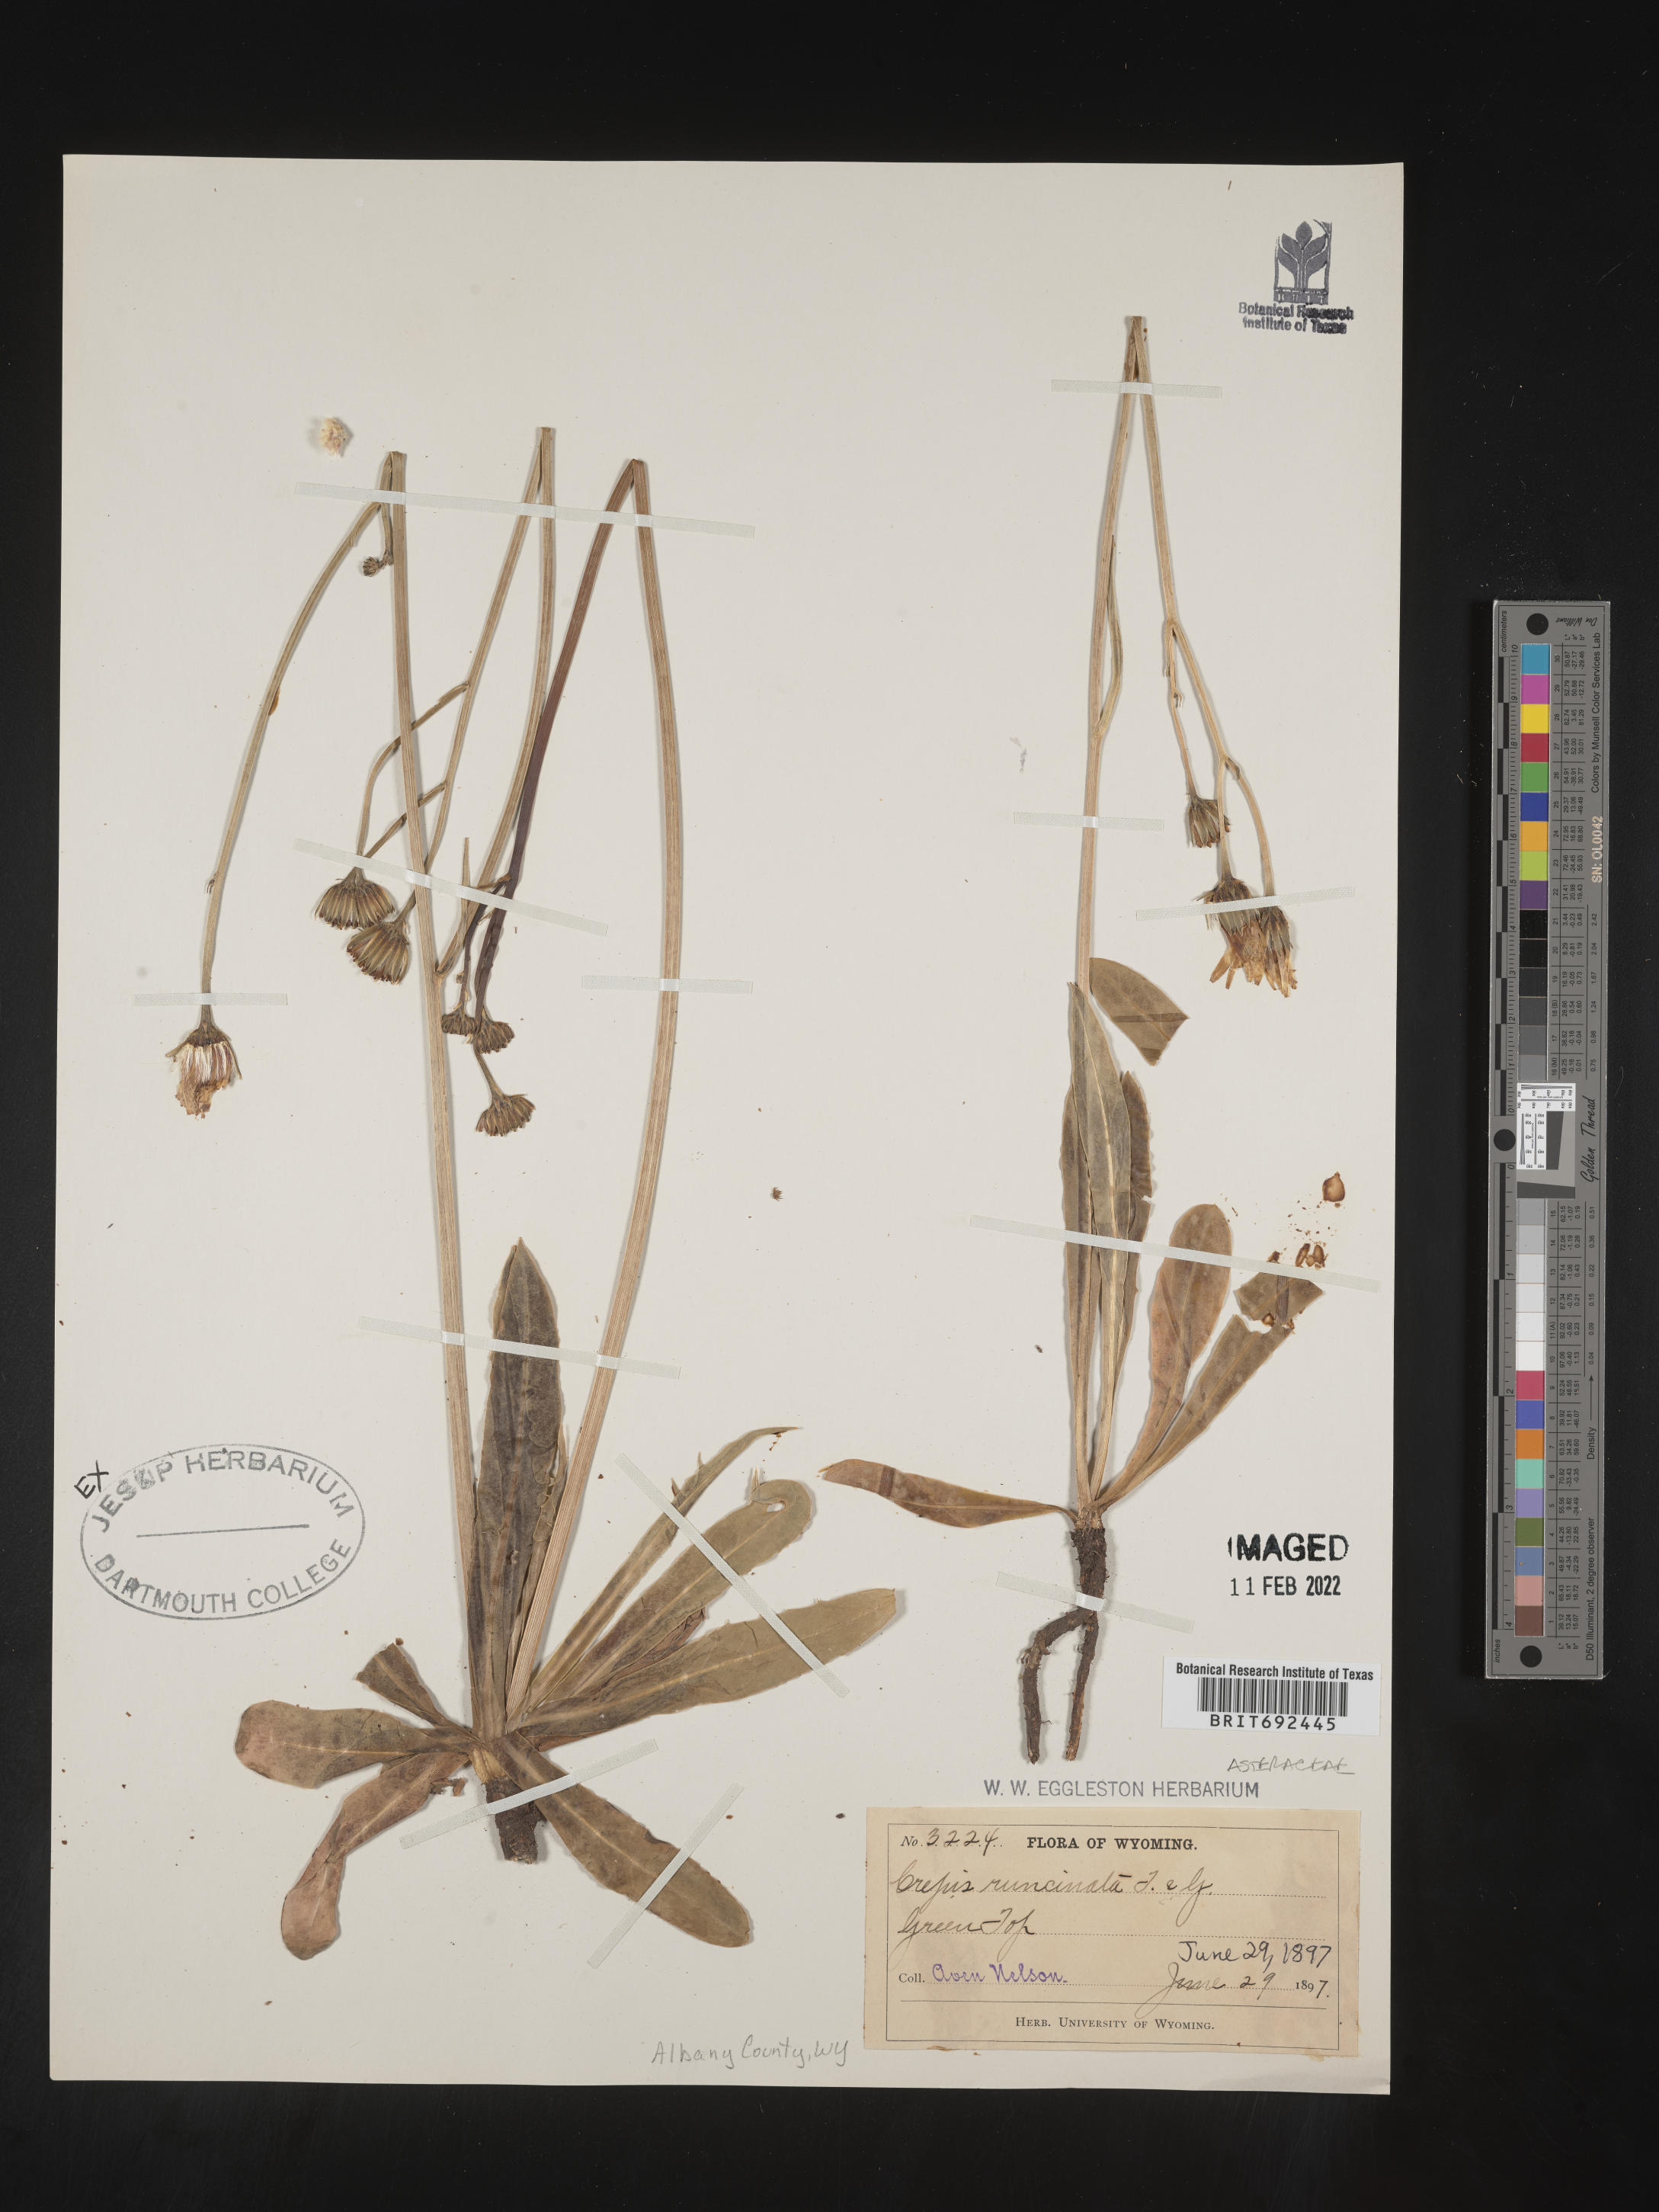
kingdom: Plantae
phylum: Tracheophyta
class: Magnoliopsida
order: Asterales
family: Asteraceae
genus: Crepis
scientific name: Crepis
